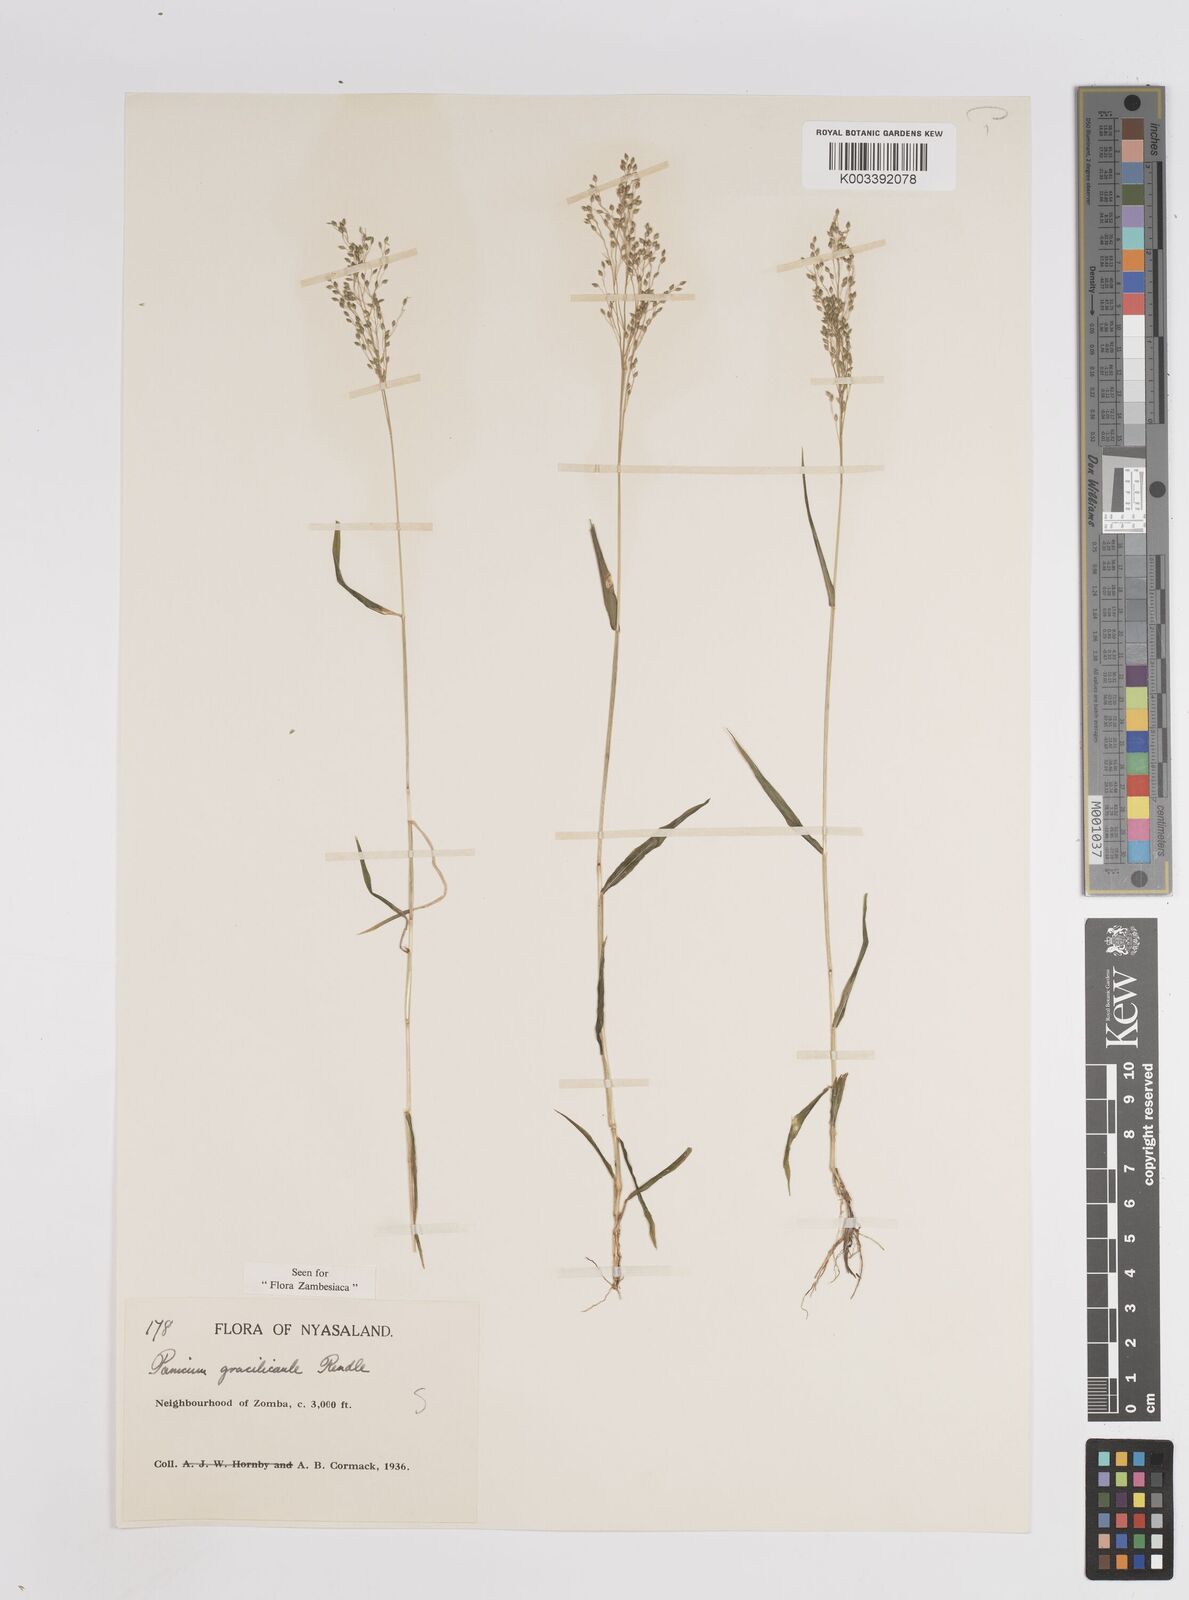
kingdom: Plantae
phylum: Tracheophyta
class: Liliopsida
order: Poales
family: Poaceae
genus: Trichanthecium
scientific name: Trichanthecium gracilicaule
